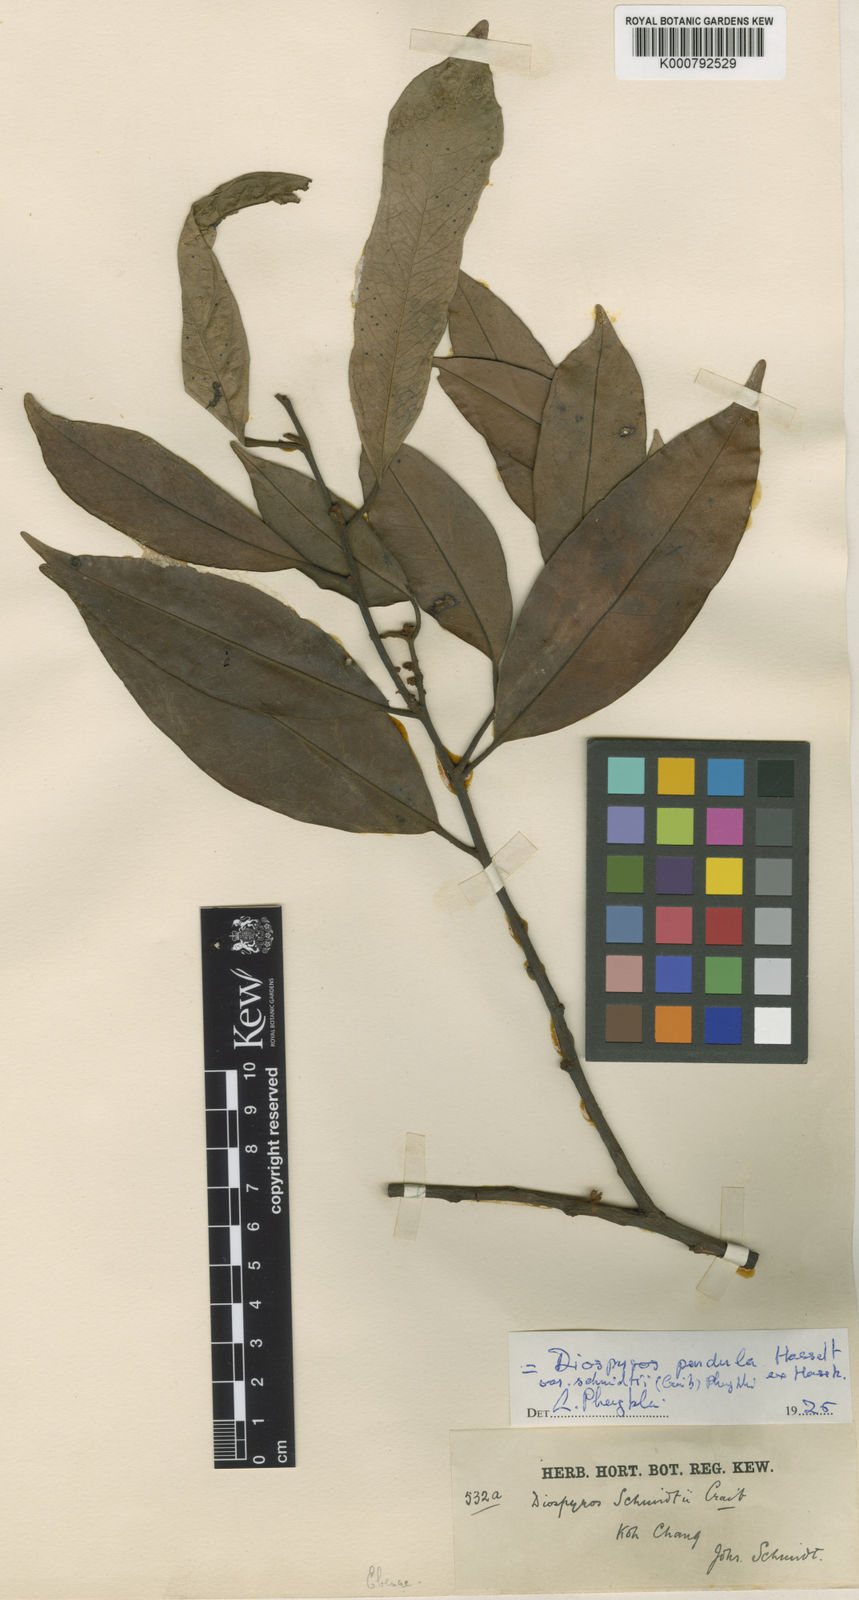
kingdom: Plantae
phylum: Tracheophyta
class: Magnoliopsida
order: Ericales
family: Ebenaceae
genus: Diospyros
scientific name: Diospyros schmidtii
